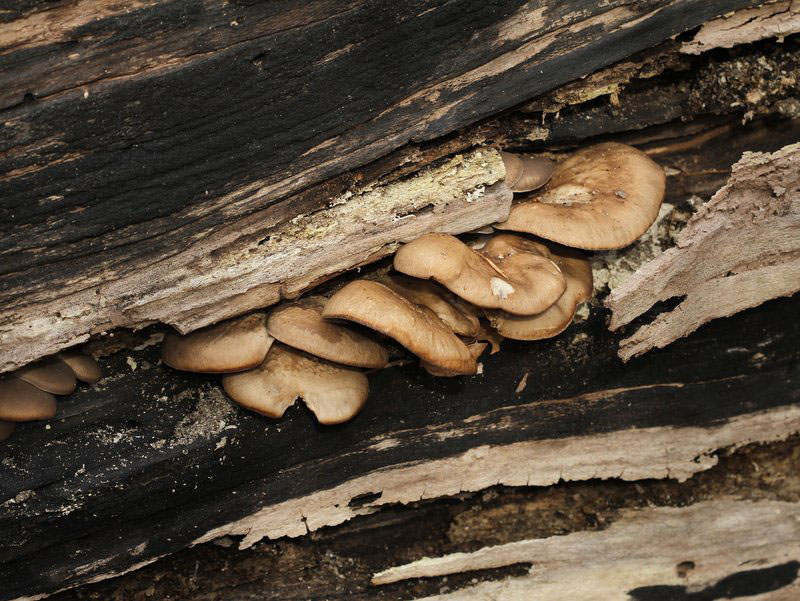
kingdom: Fungi
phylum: Basidiomycota
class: Agaricomycetes
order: Agaricales
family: Pleurotaceae
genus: Pleurotus
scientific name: Pleurotus ostreatus
